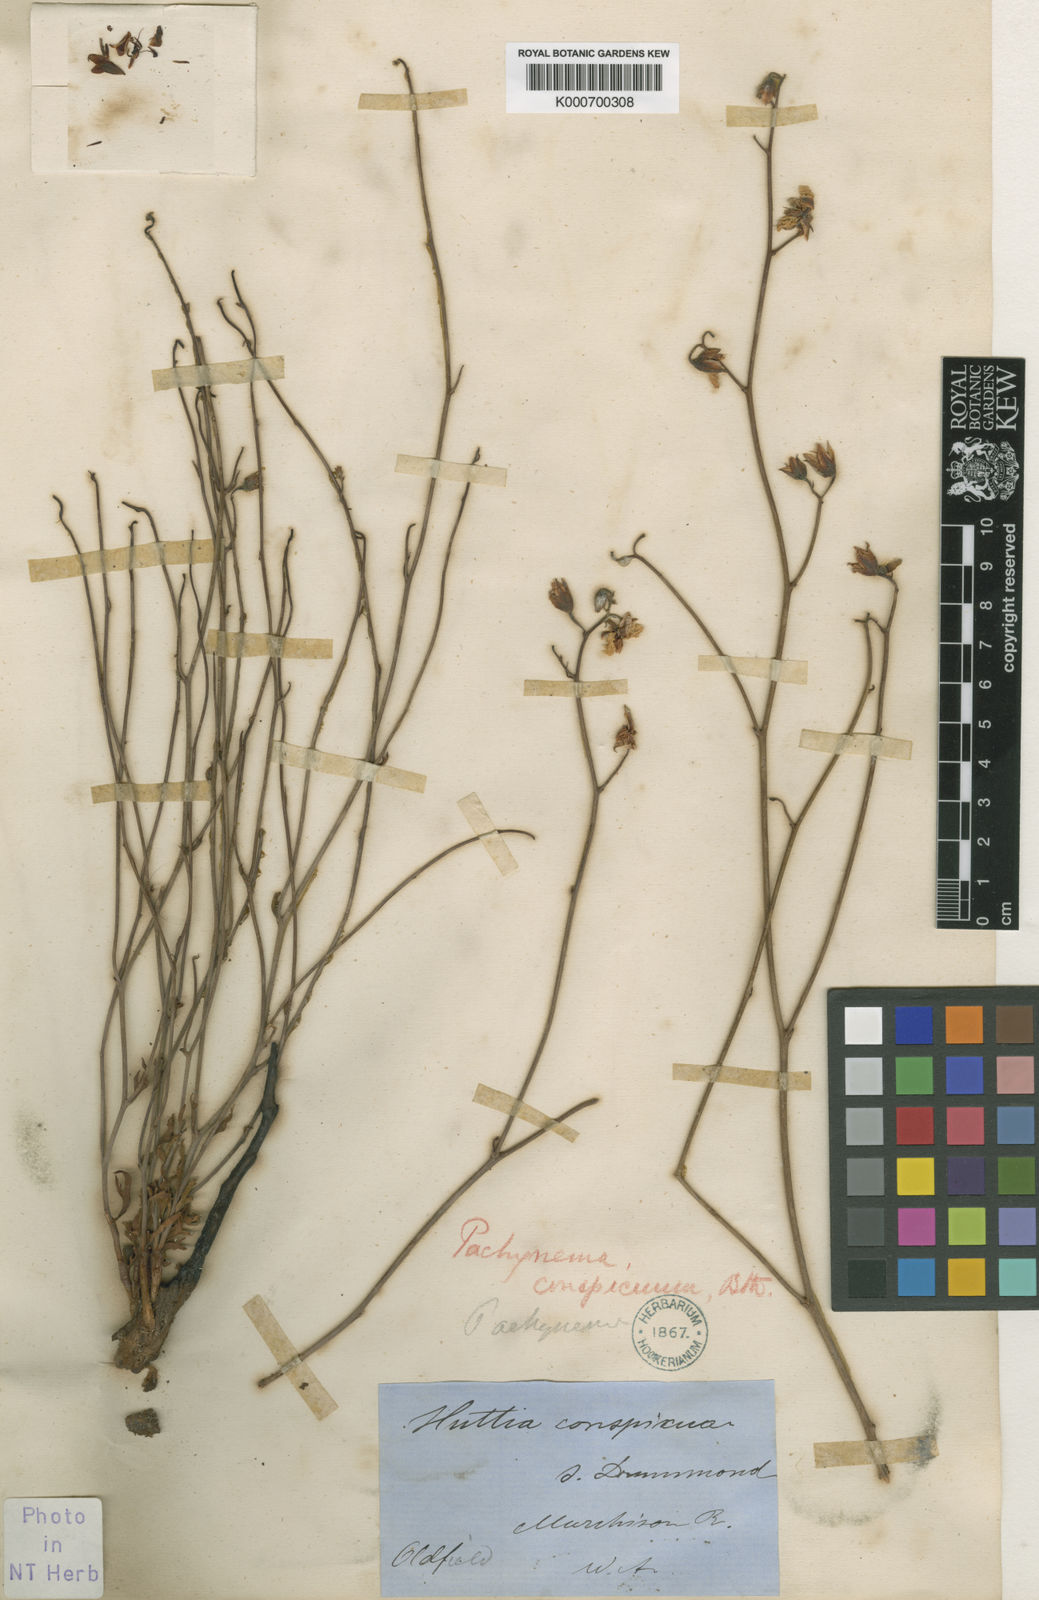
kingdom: Plantae
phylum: Tracheophyta
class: Magnoliopsida
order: Dilleniales
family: Dilleniaceae
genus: Hibbertia
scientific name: Hibbertia
